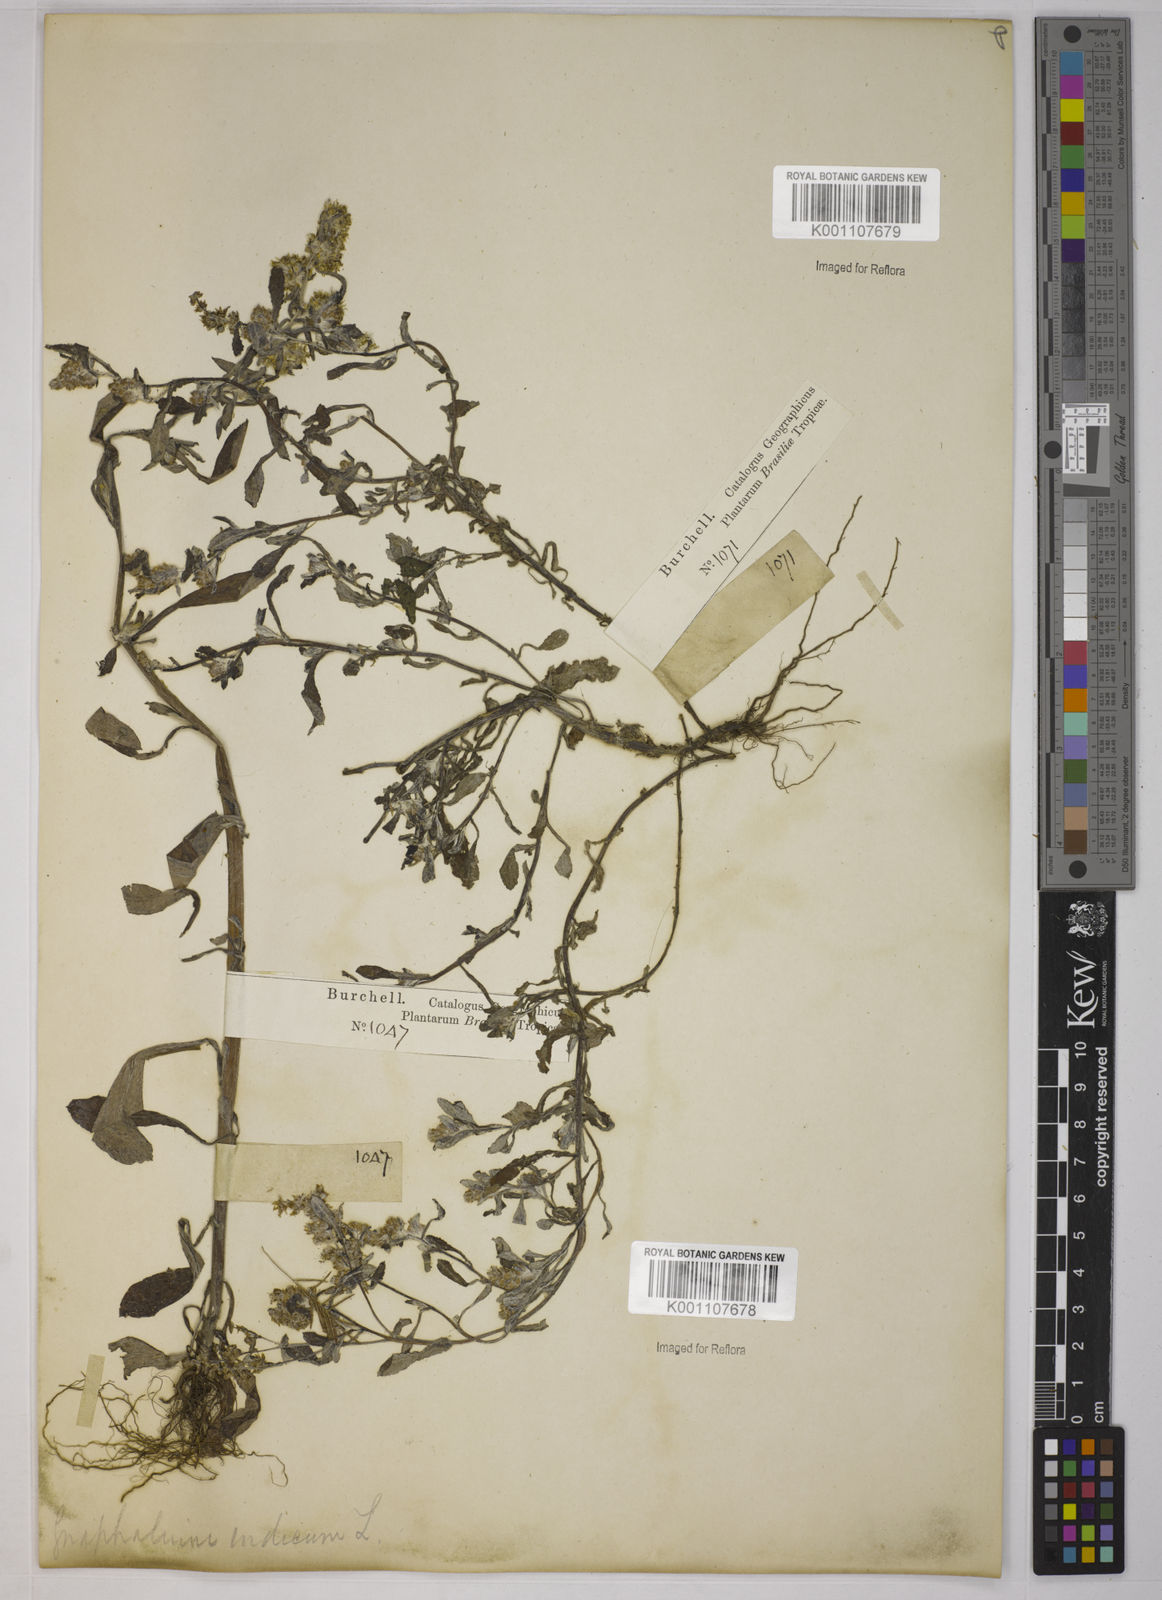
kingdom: Plantae
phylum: Tracheophyta
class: Magnoliopsida
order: Asterales
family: Asteraceae
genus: Gamochaeta
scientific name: Gamochaeta pensylvanica
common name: Pennsylvania everlasting
